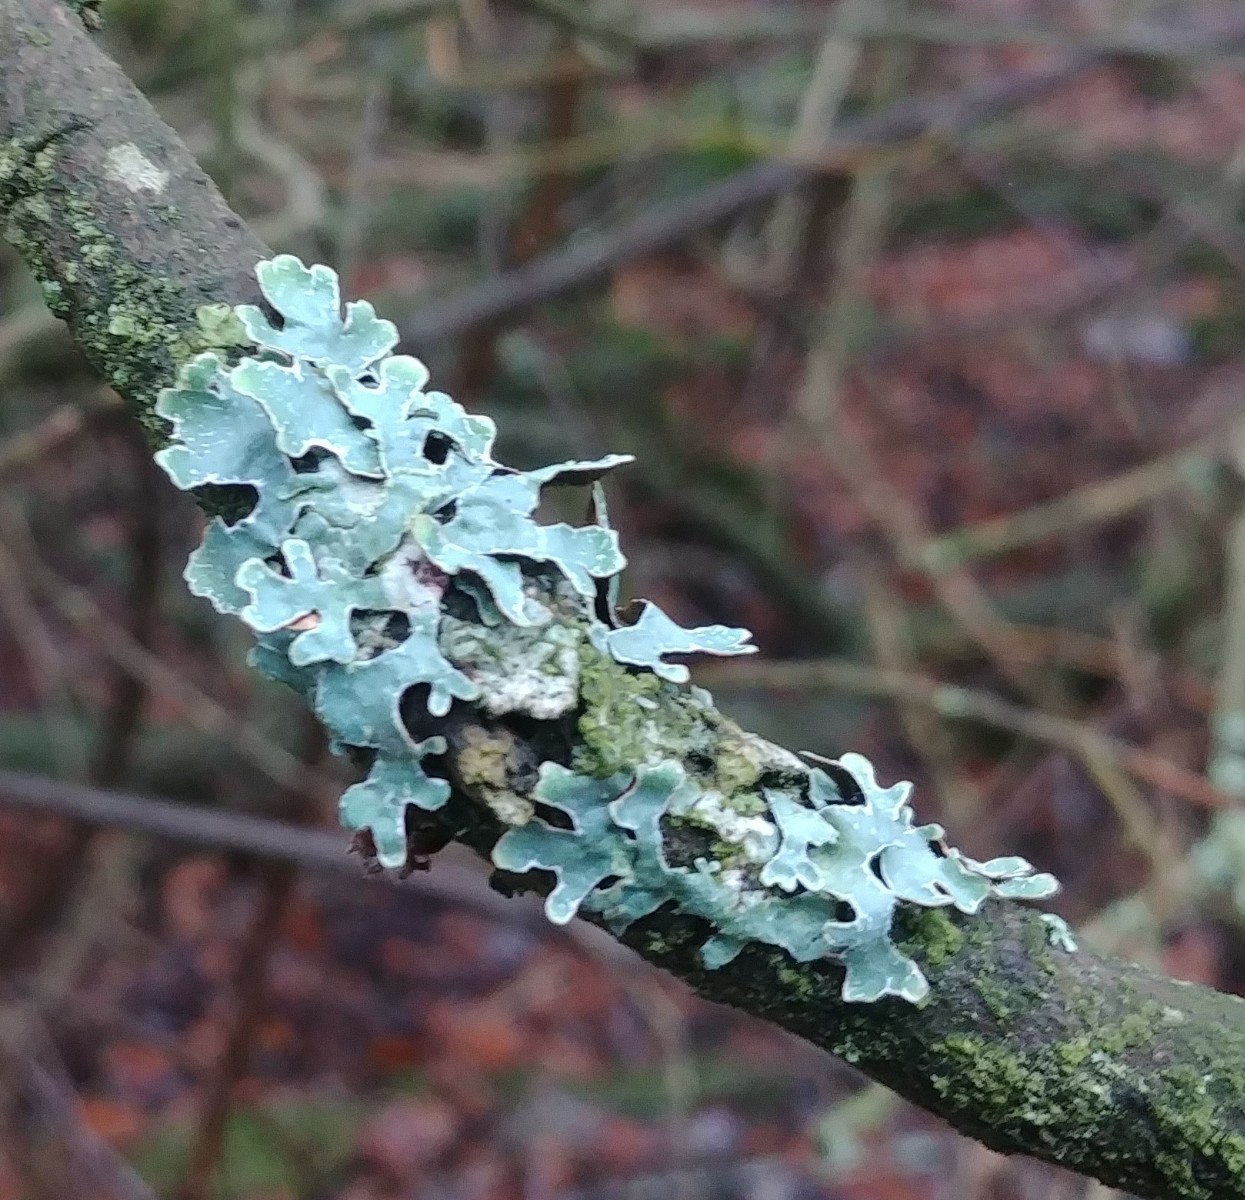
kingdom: Fungi
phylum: Ascomycota
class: Lecanoromycetes
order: Lecanorales
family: Parmeliaceae
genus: Parmelia
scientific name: Parmelia sulcata
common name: rynket skållav
